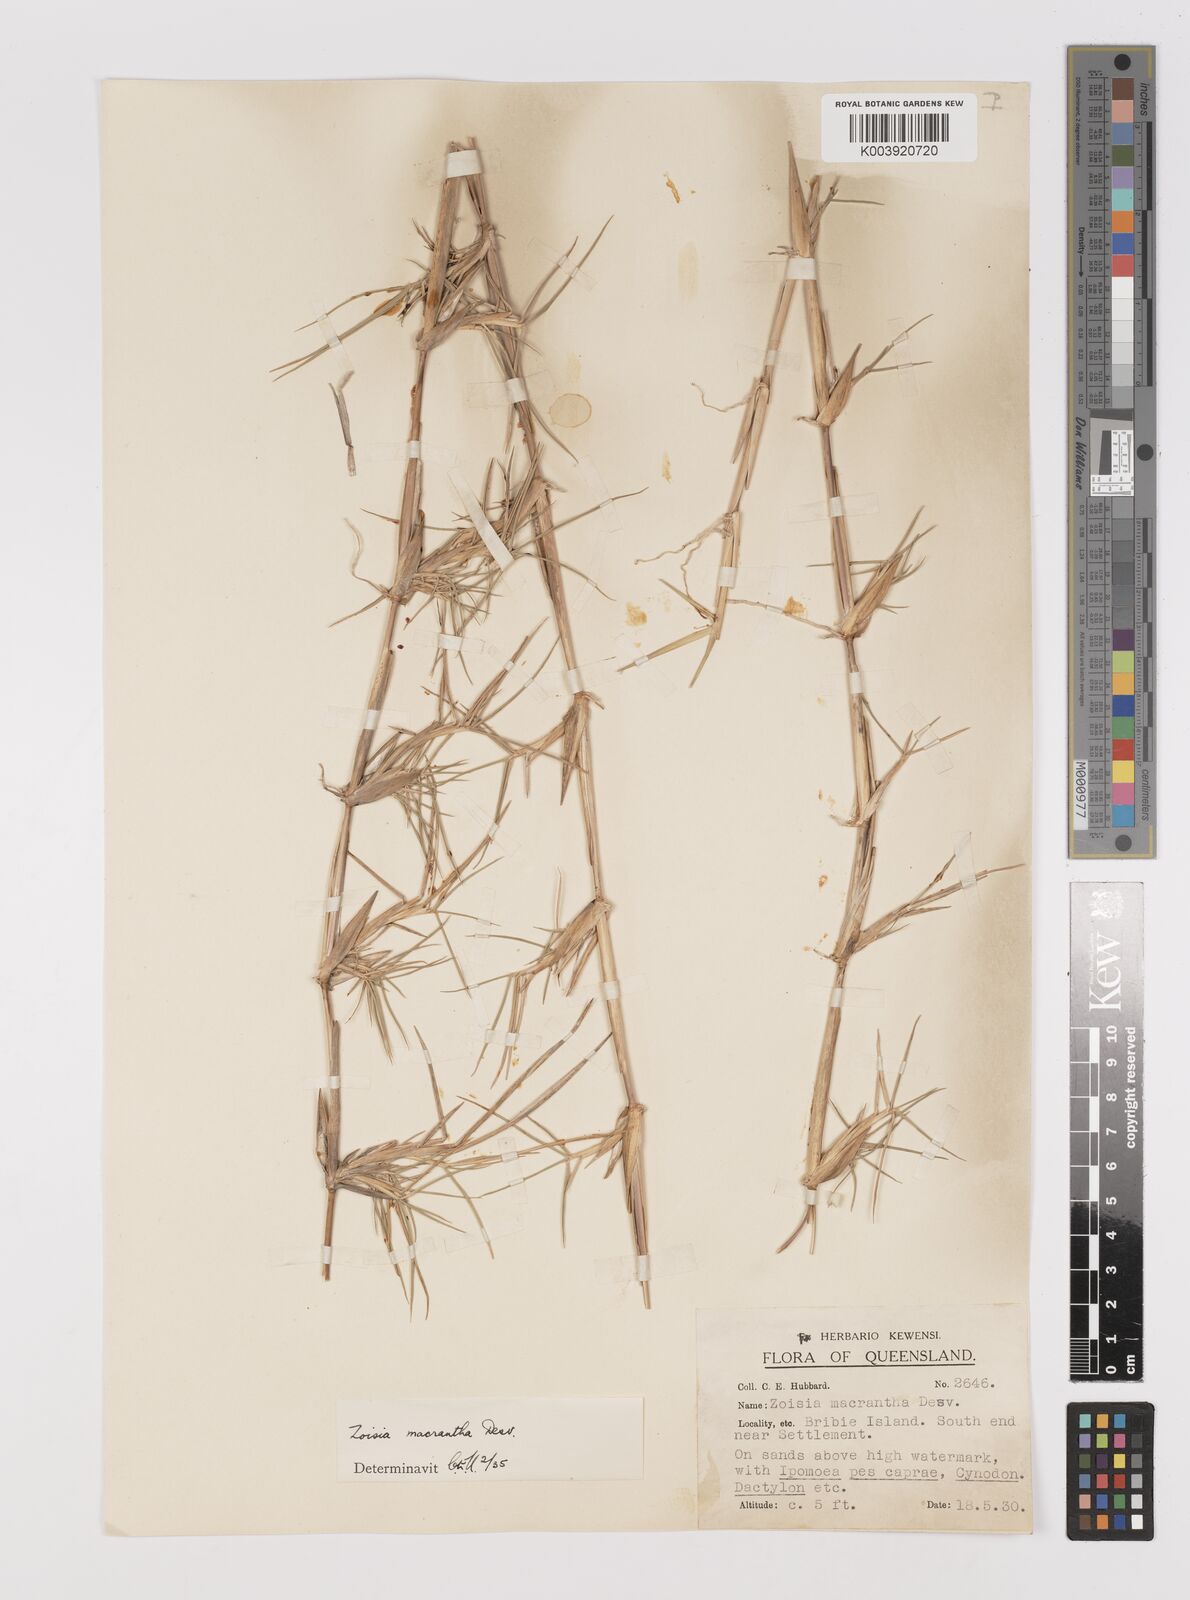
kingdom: Plantae
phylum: Tracheophyta
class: Liliopsida
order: Poales
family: Poaceae
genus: Zoysia
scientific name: Zoysia macrantha
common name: Korean lawn grass
